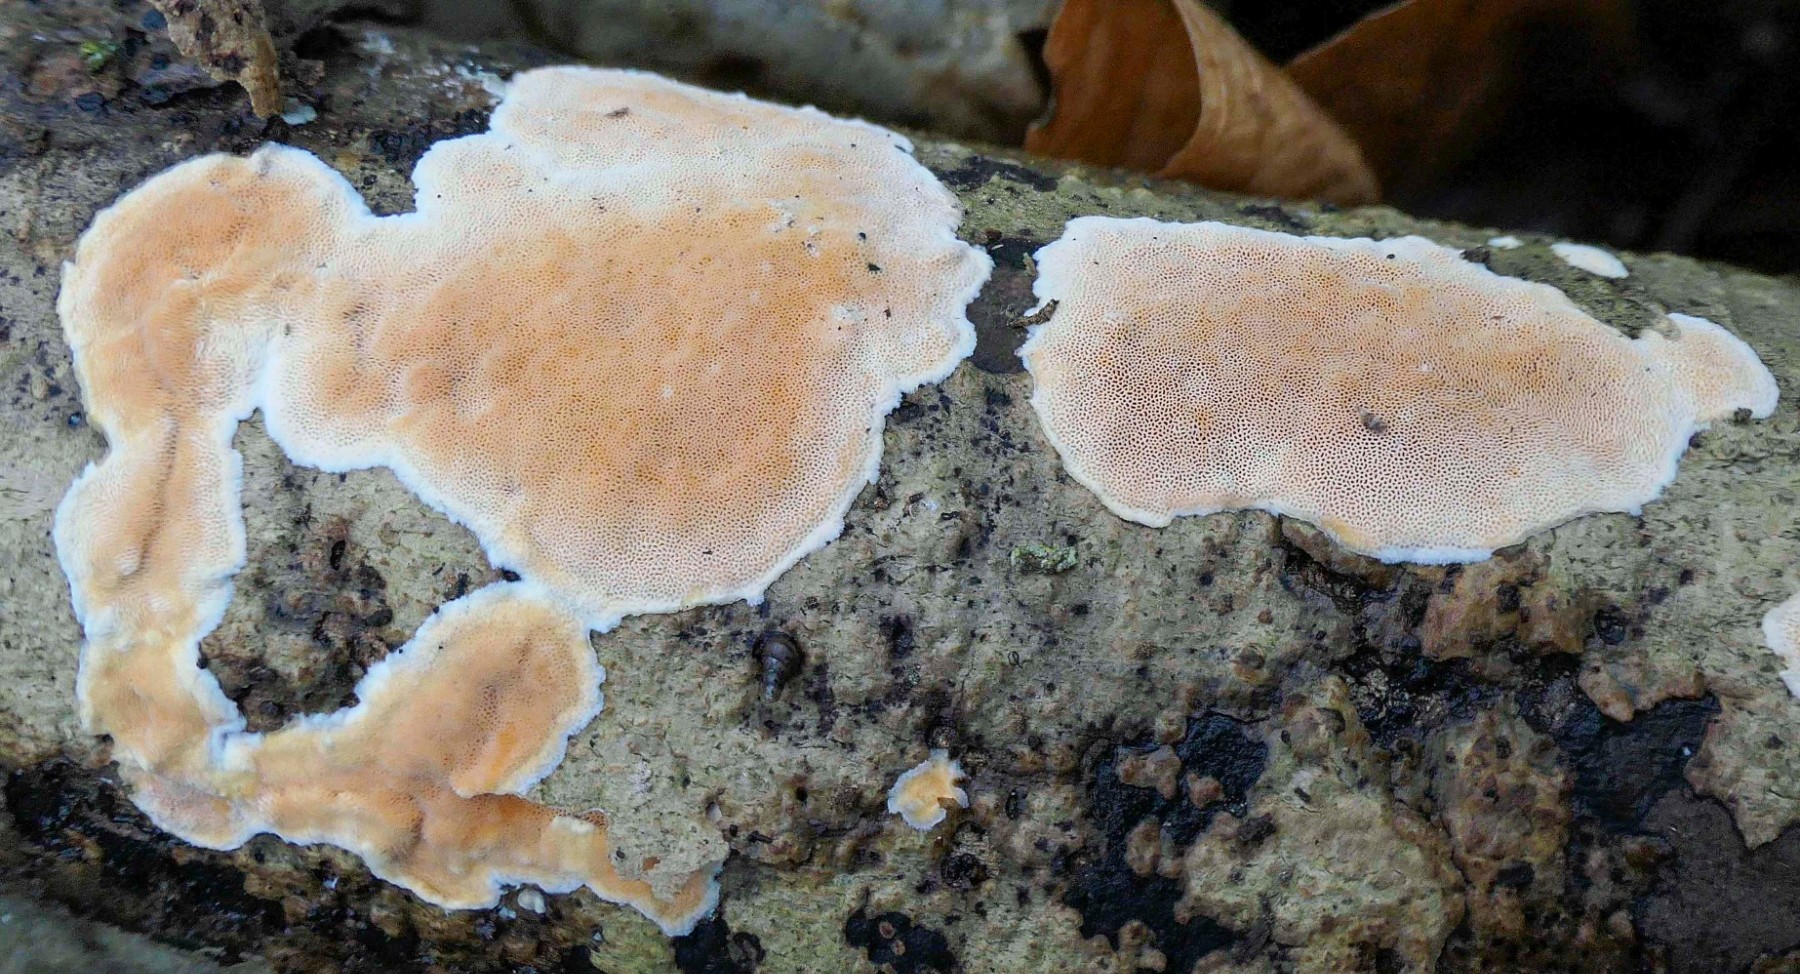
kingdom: Fungi
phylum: Basidiomycota
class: Agaricomycetes
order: Polyporales
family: Steccherinaceae
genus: Junghuhnia
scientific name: Junghuhnia nitida
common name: almindelig skønporesvamp
